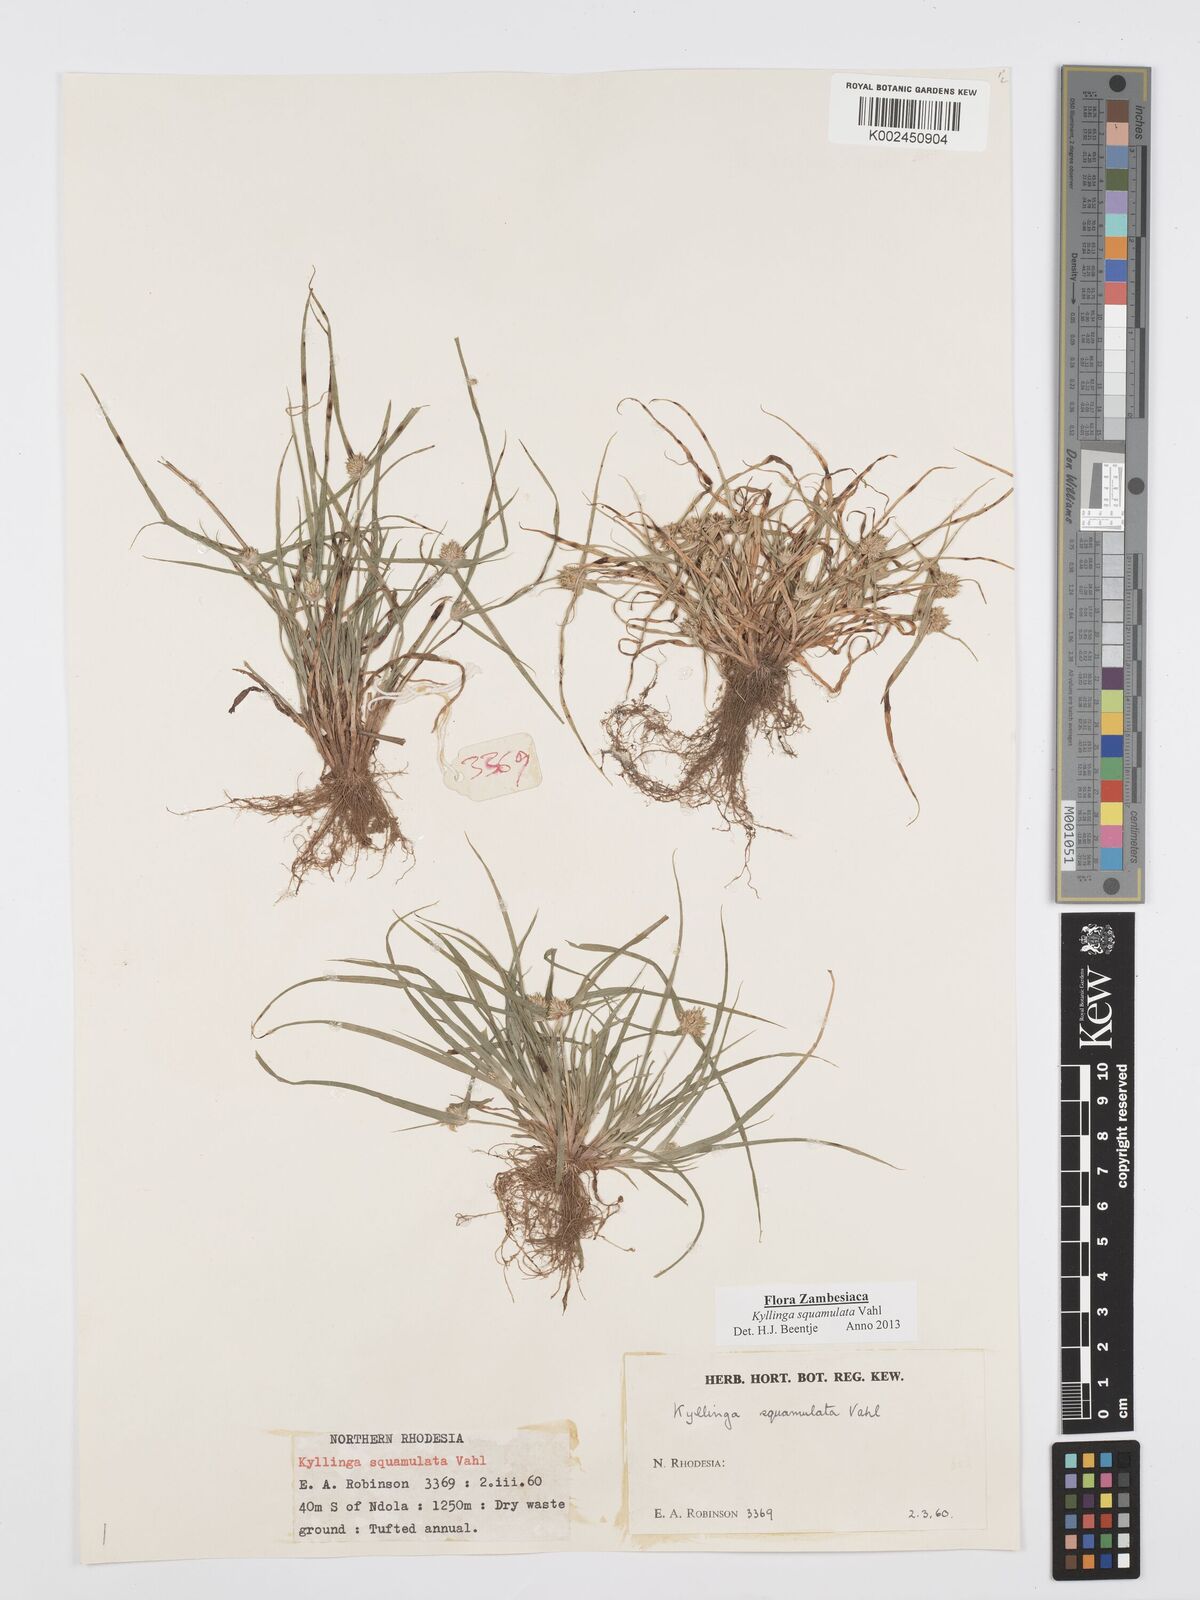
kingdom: Plantae
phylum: Tracheophyta
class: Liliopsida
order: Poales
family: Cyperaceae
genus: Cyperus
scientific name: Cyperus distans
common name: Slender cyperus
